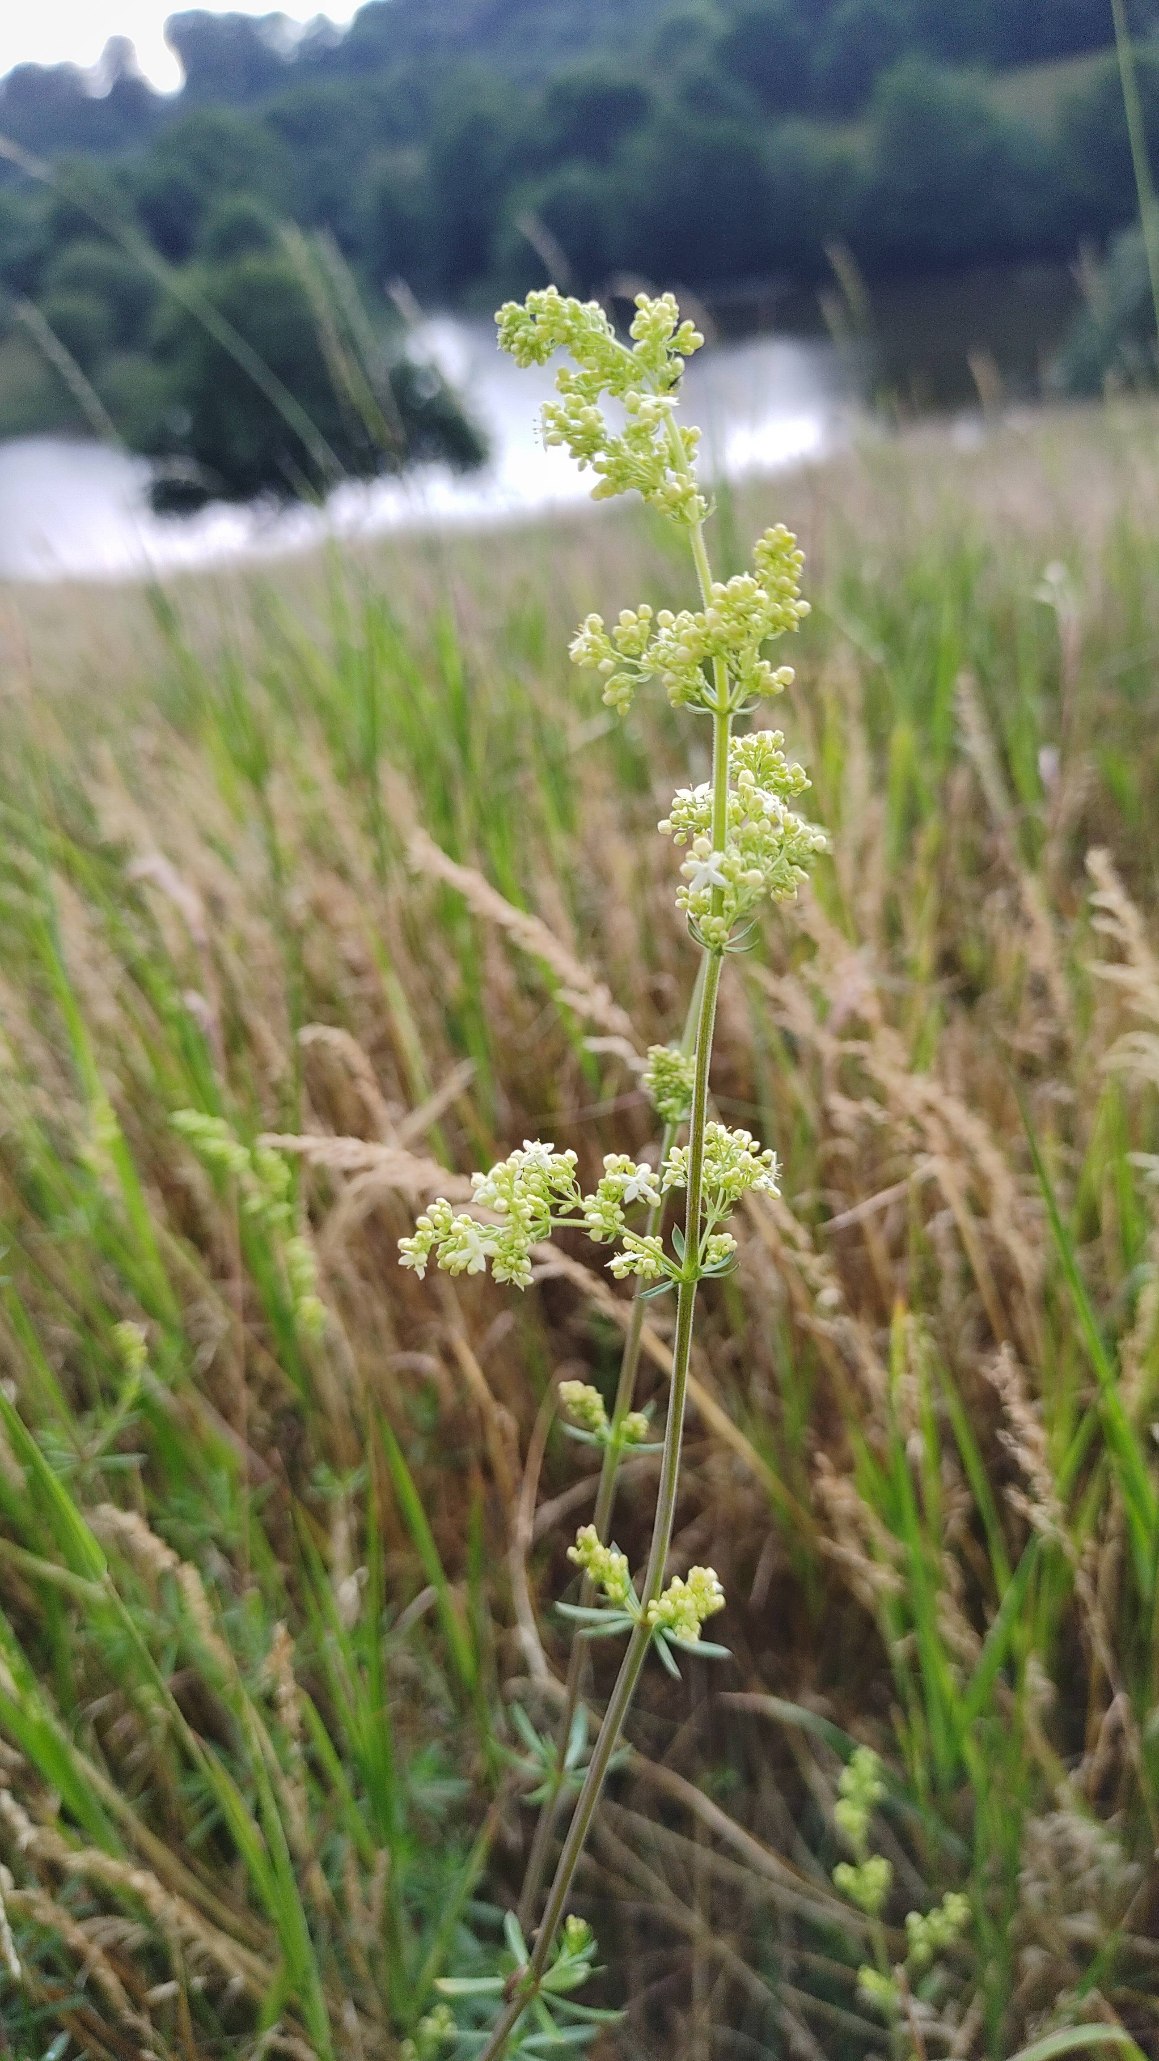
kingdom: Plantae
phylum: Tracheophyta
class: Magnoliopsida
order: Gentianales
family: Rubiaceae
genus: Galium
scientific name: Galium mollugo
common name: Hvid snerre
